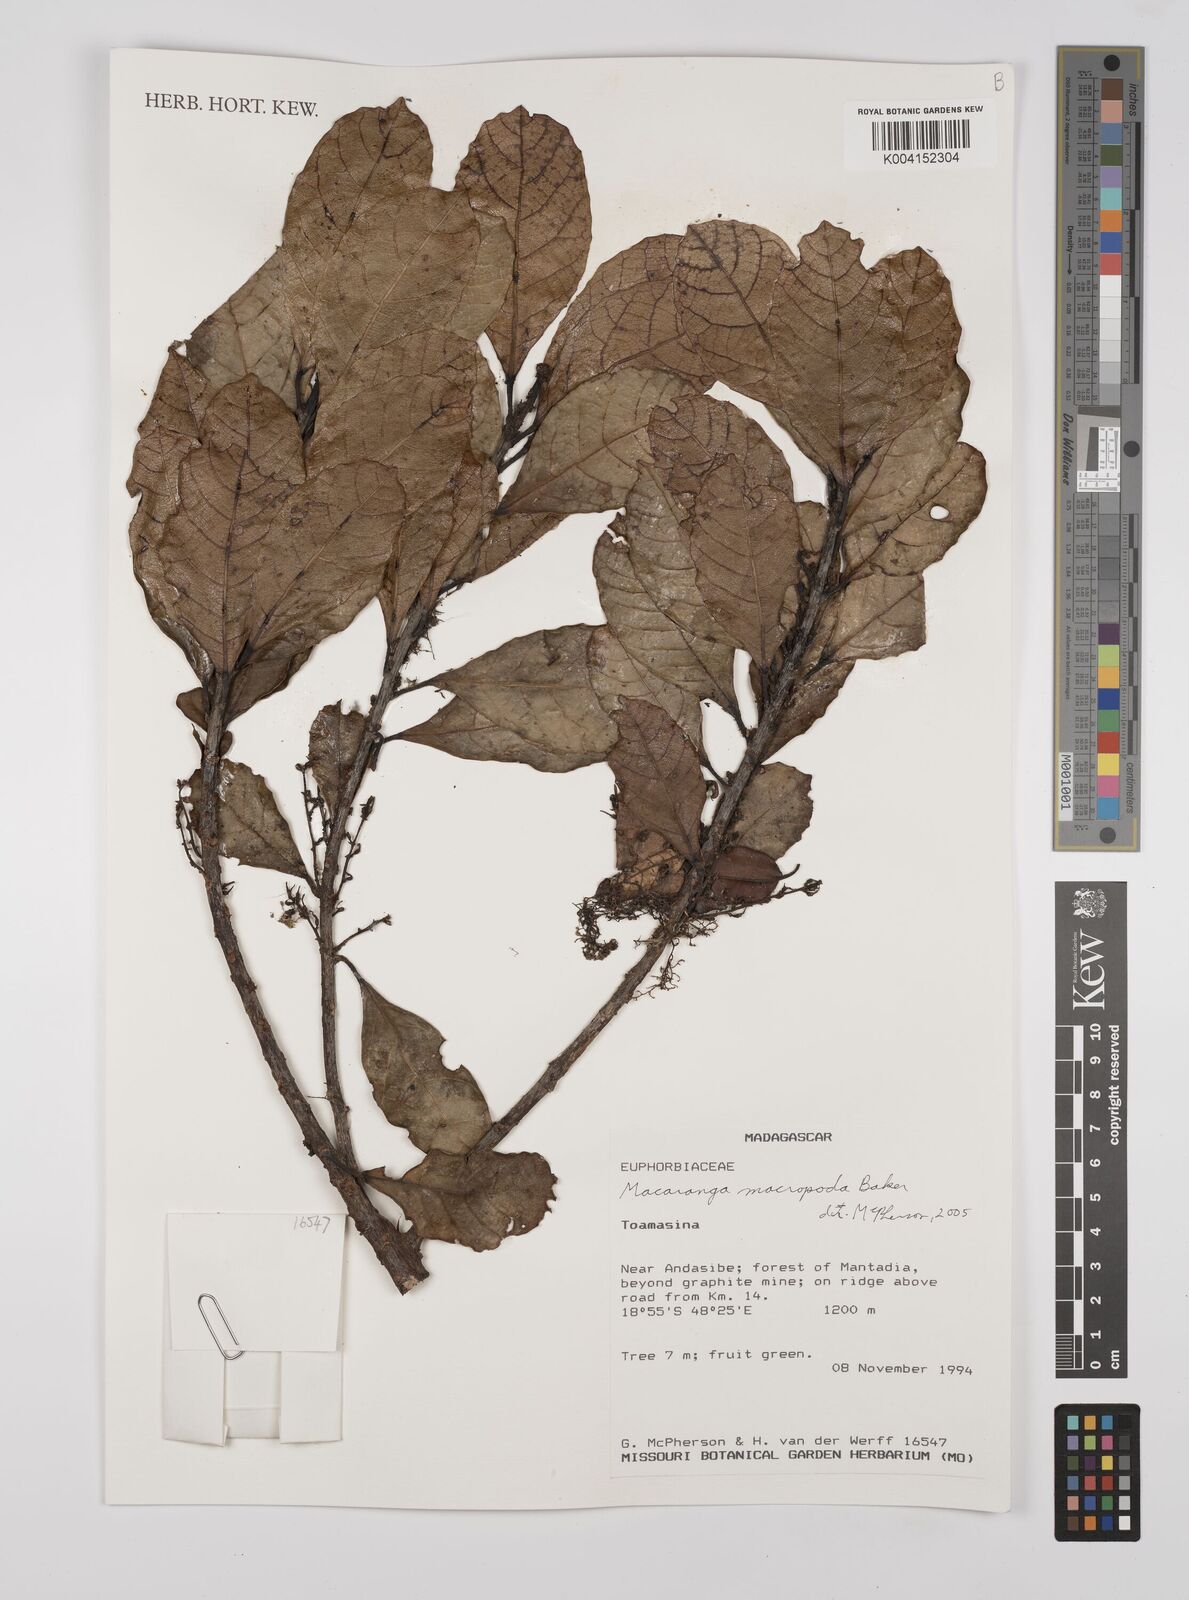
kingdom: Plantae
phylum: Tracheophyta
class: Magnoliopsida
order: Malpighiales
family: Euphorbiaceae
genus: Macaranga
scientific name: Macaranga macropoda
